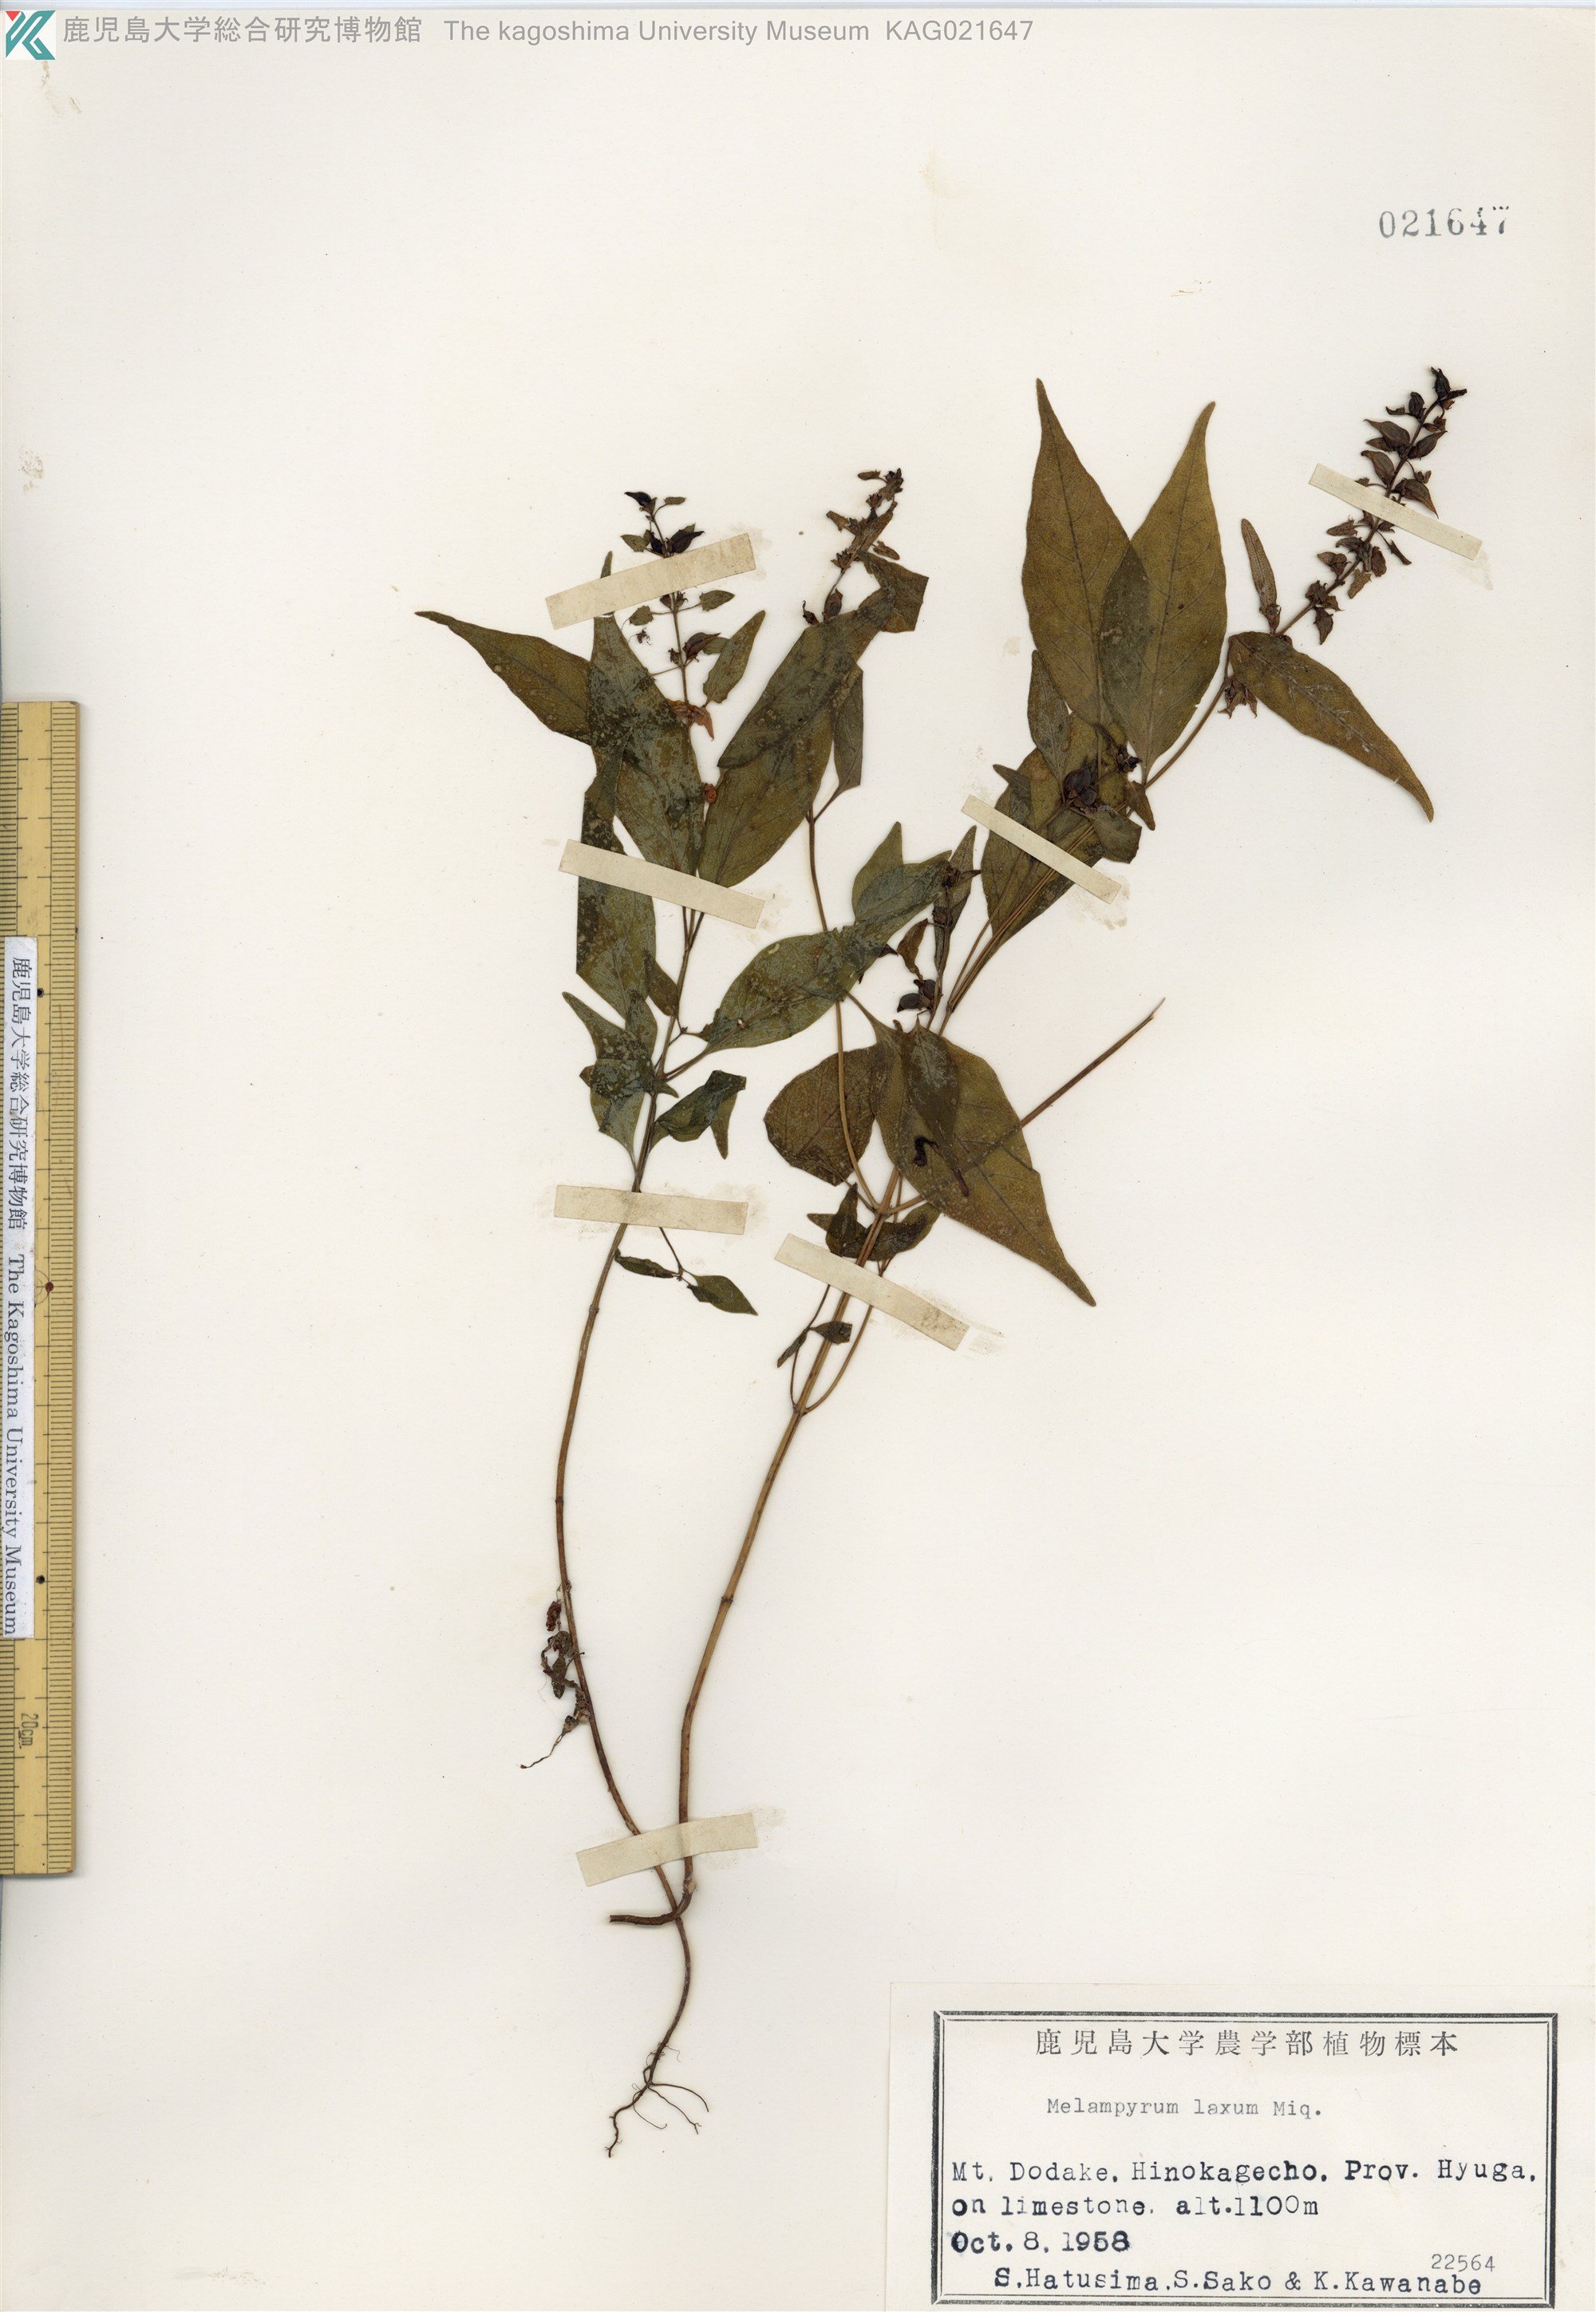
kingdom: Plantae
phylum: Tracheophyta
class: Magnoliopsida
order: Lamiales
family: Orobanchaceae
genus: Melampyrum
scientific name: Melampyrum laxum
